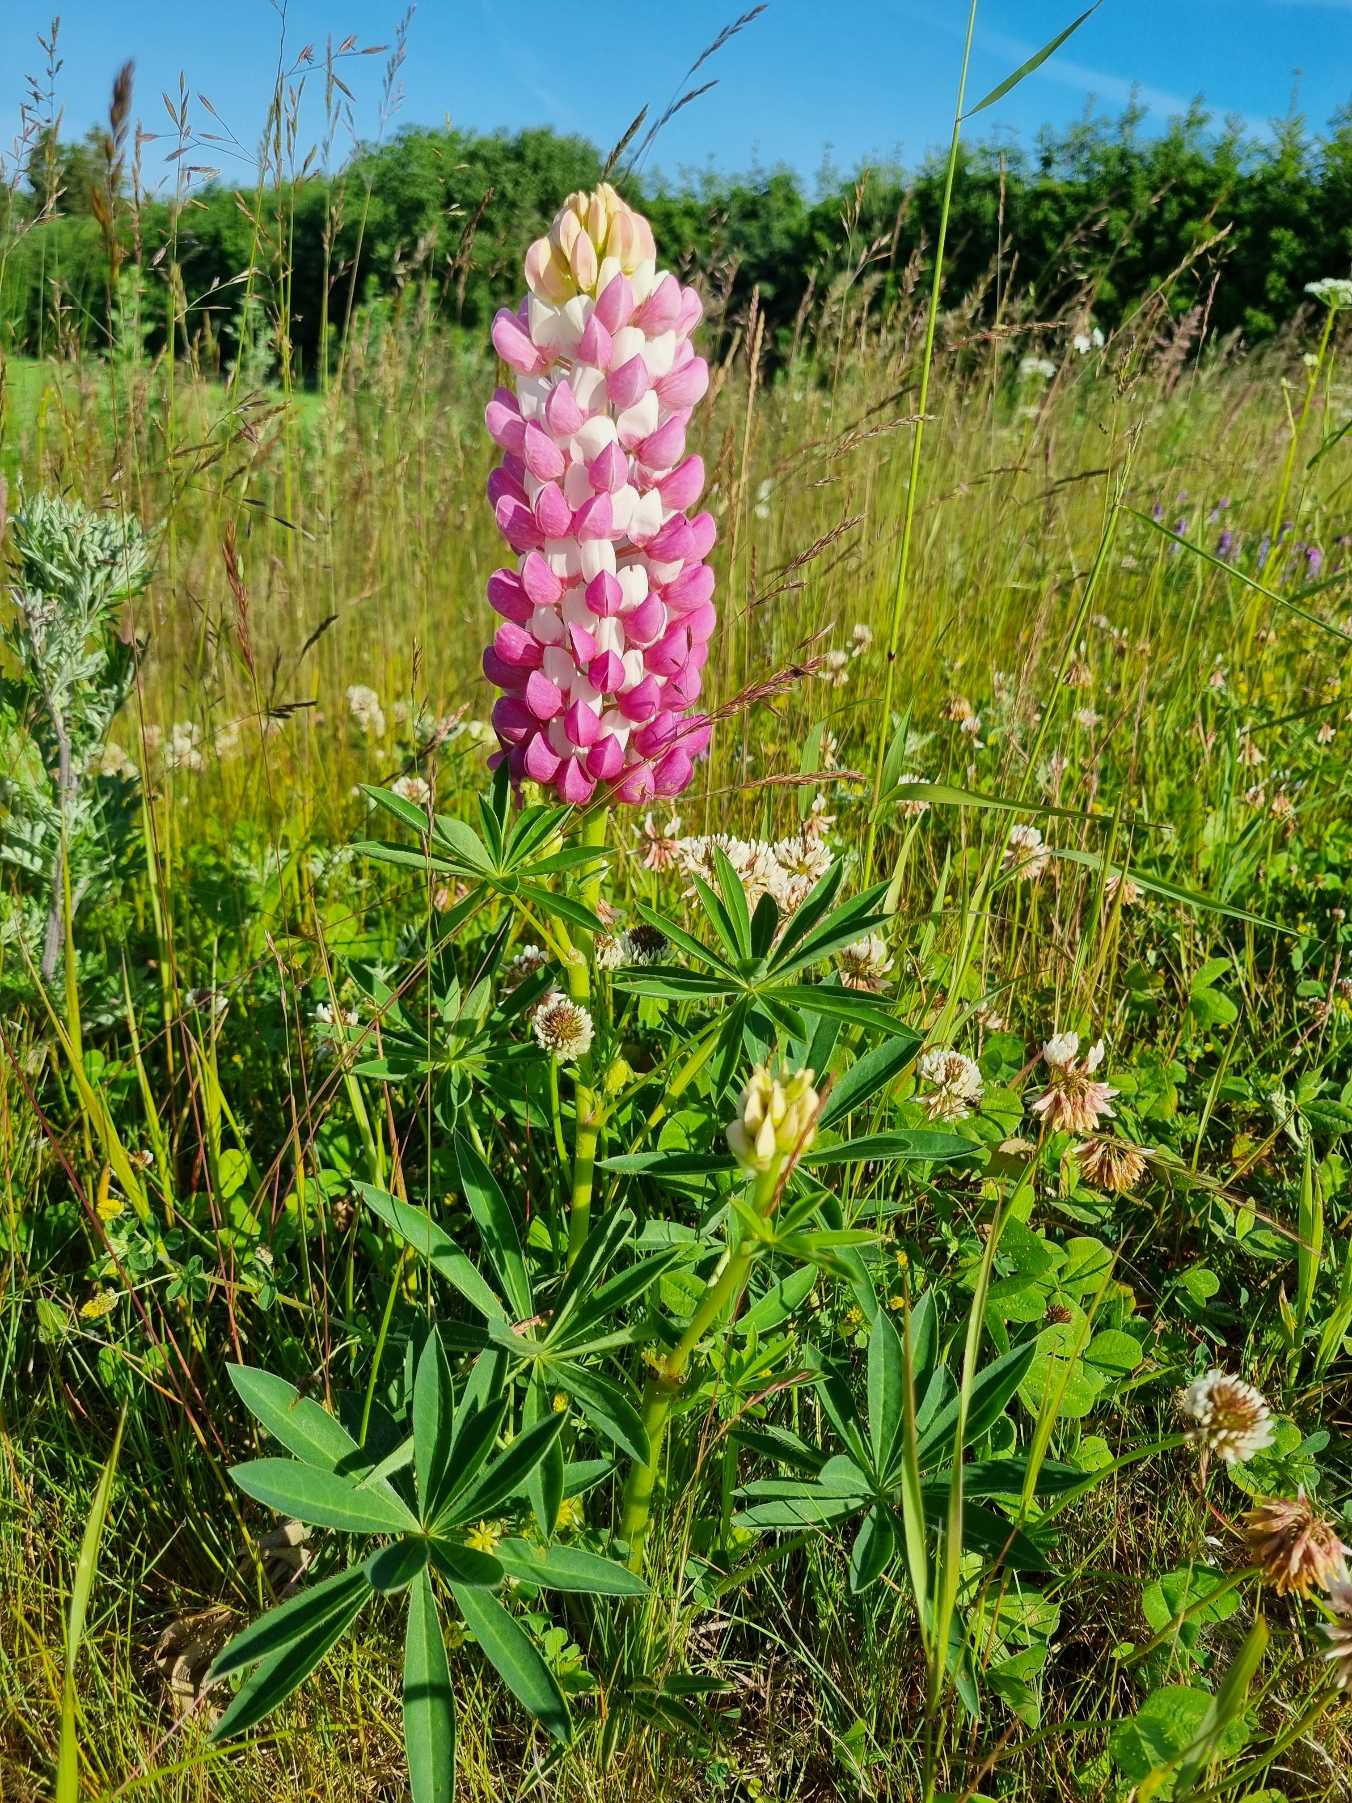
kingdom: Plantae
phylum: Tracheophyta
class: Magnoliopsida
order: Fabales
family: Fabaceae
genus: Lupinus
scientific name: Lupinus polyphyllus
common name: Mangebladet lupin
